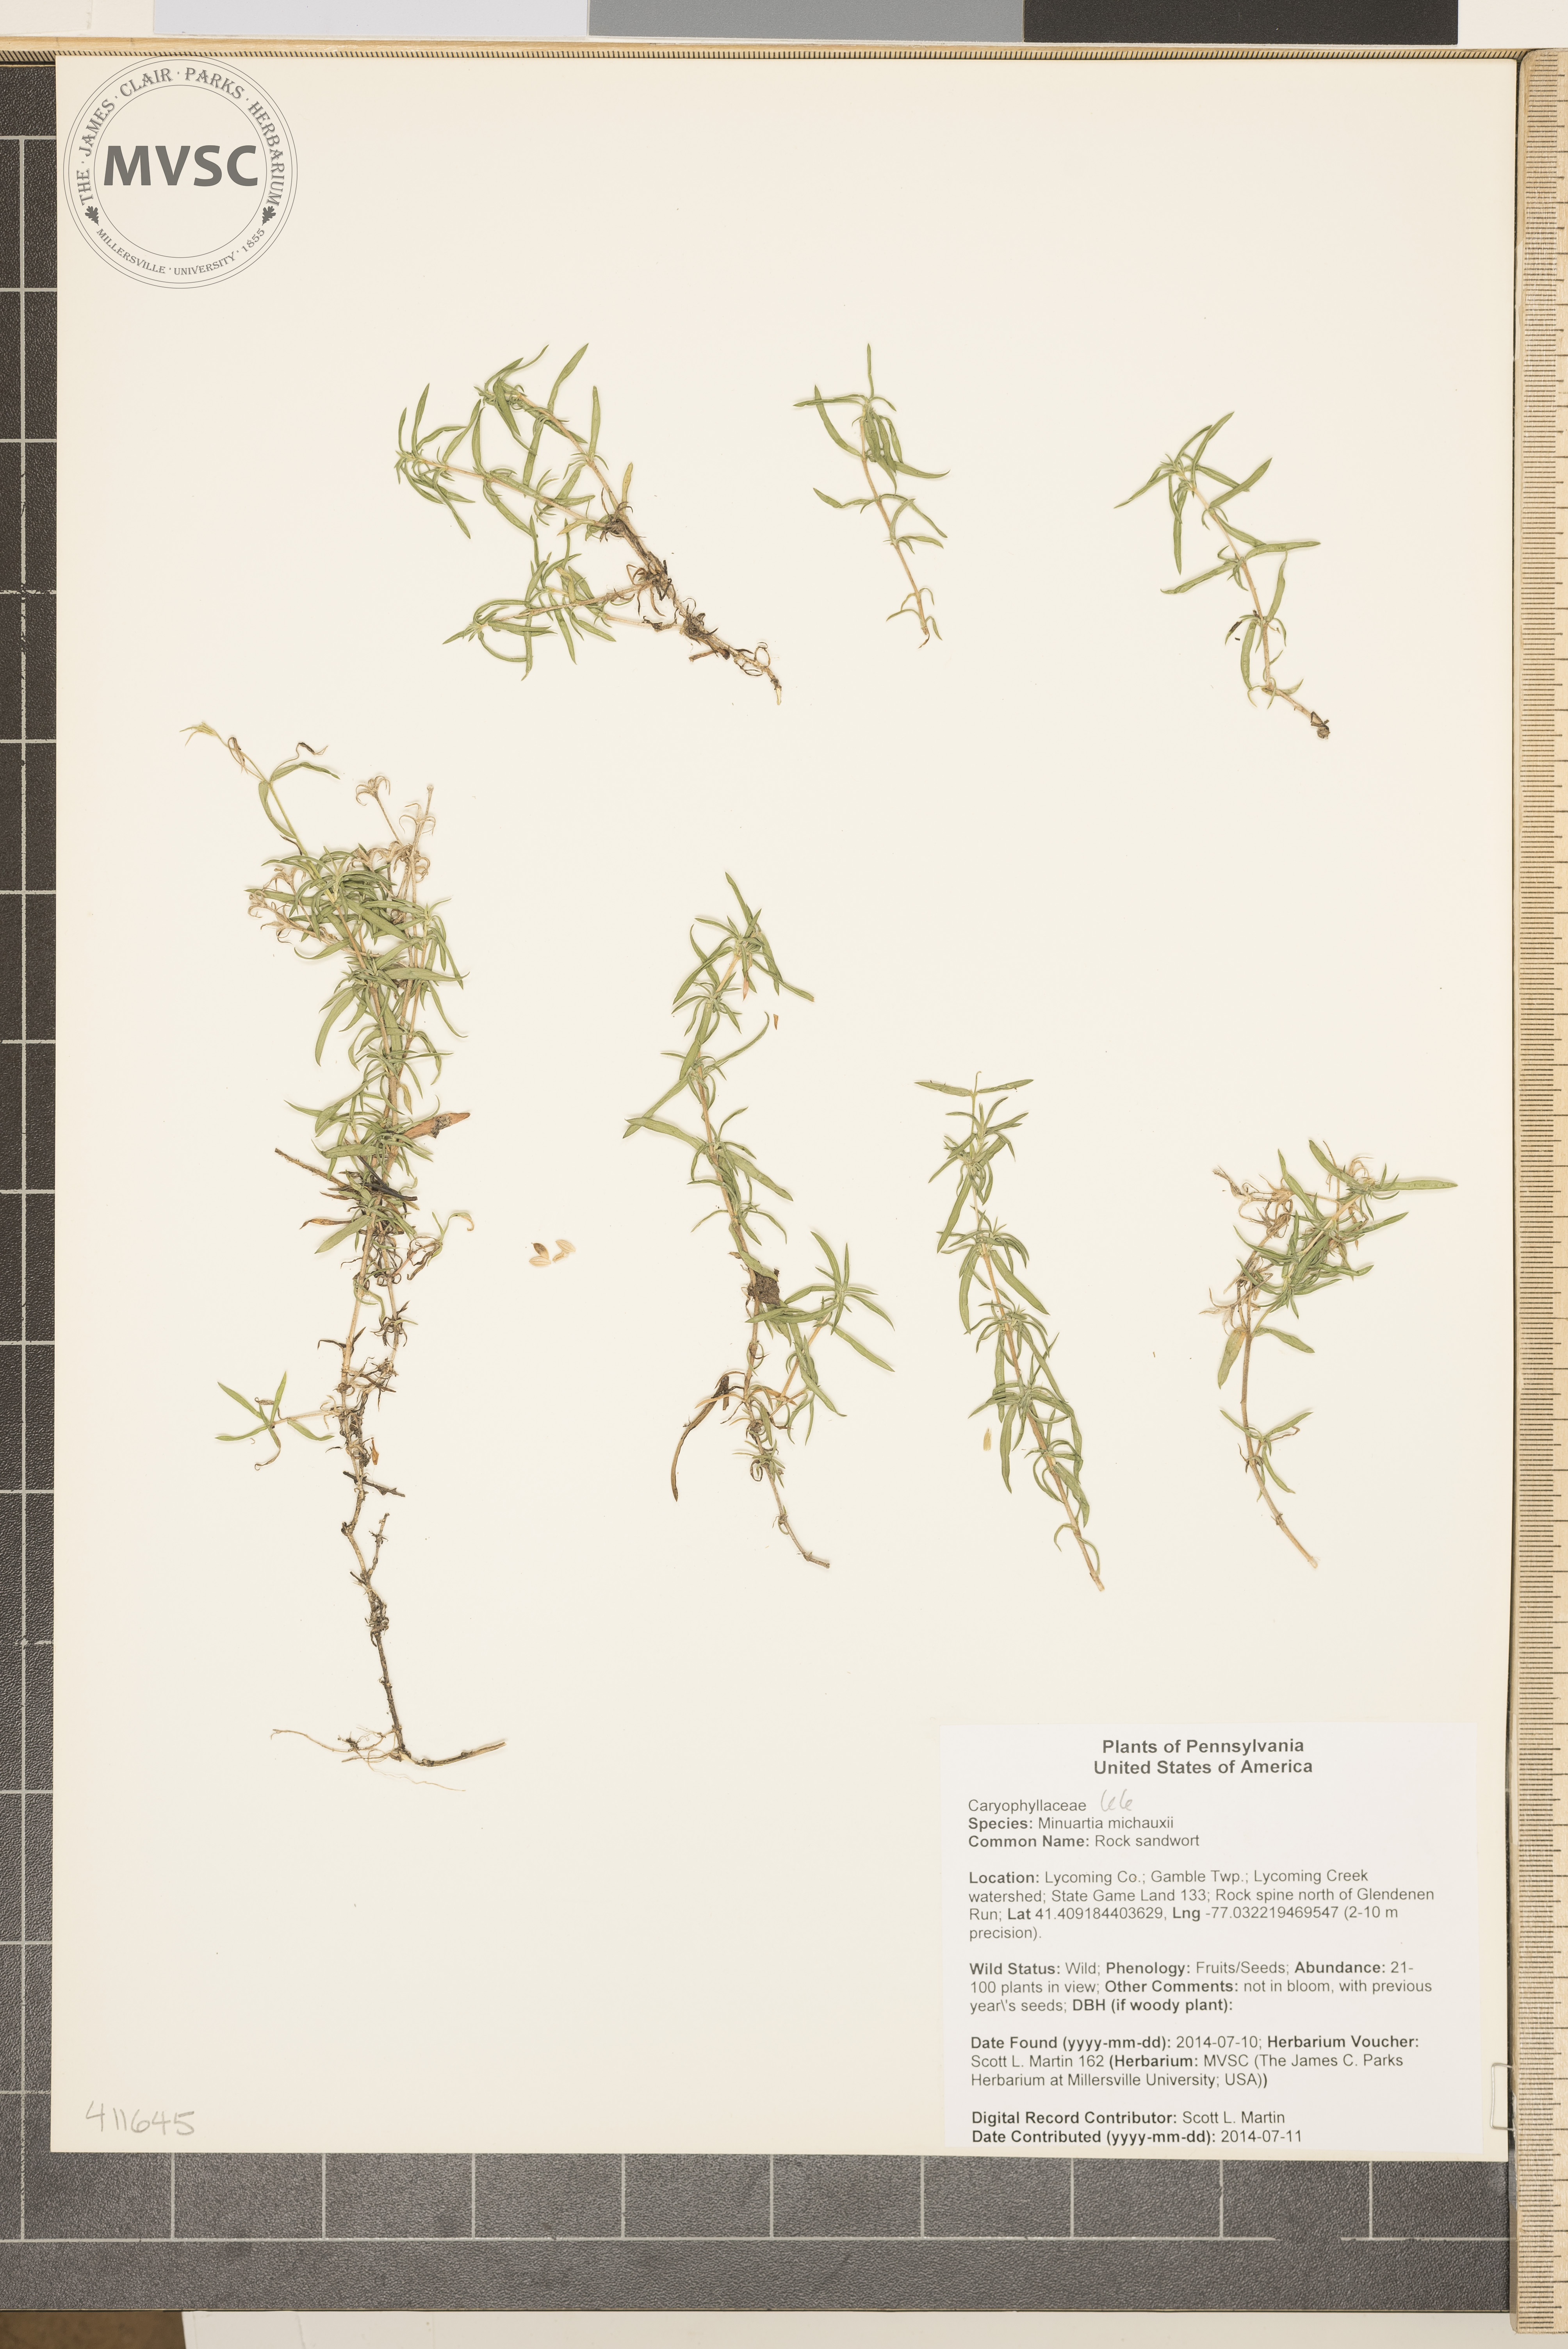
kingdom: Plantae
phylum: Tracheophyta
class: Magnoliopsida
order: Caryophyllales
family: Caryophyllaceae
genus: Minuartia
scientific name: Minuartia michauxii
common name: Rock sandwort
